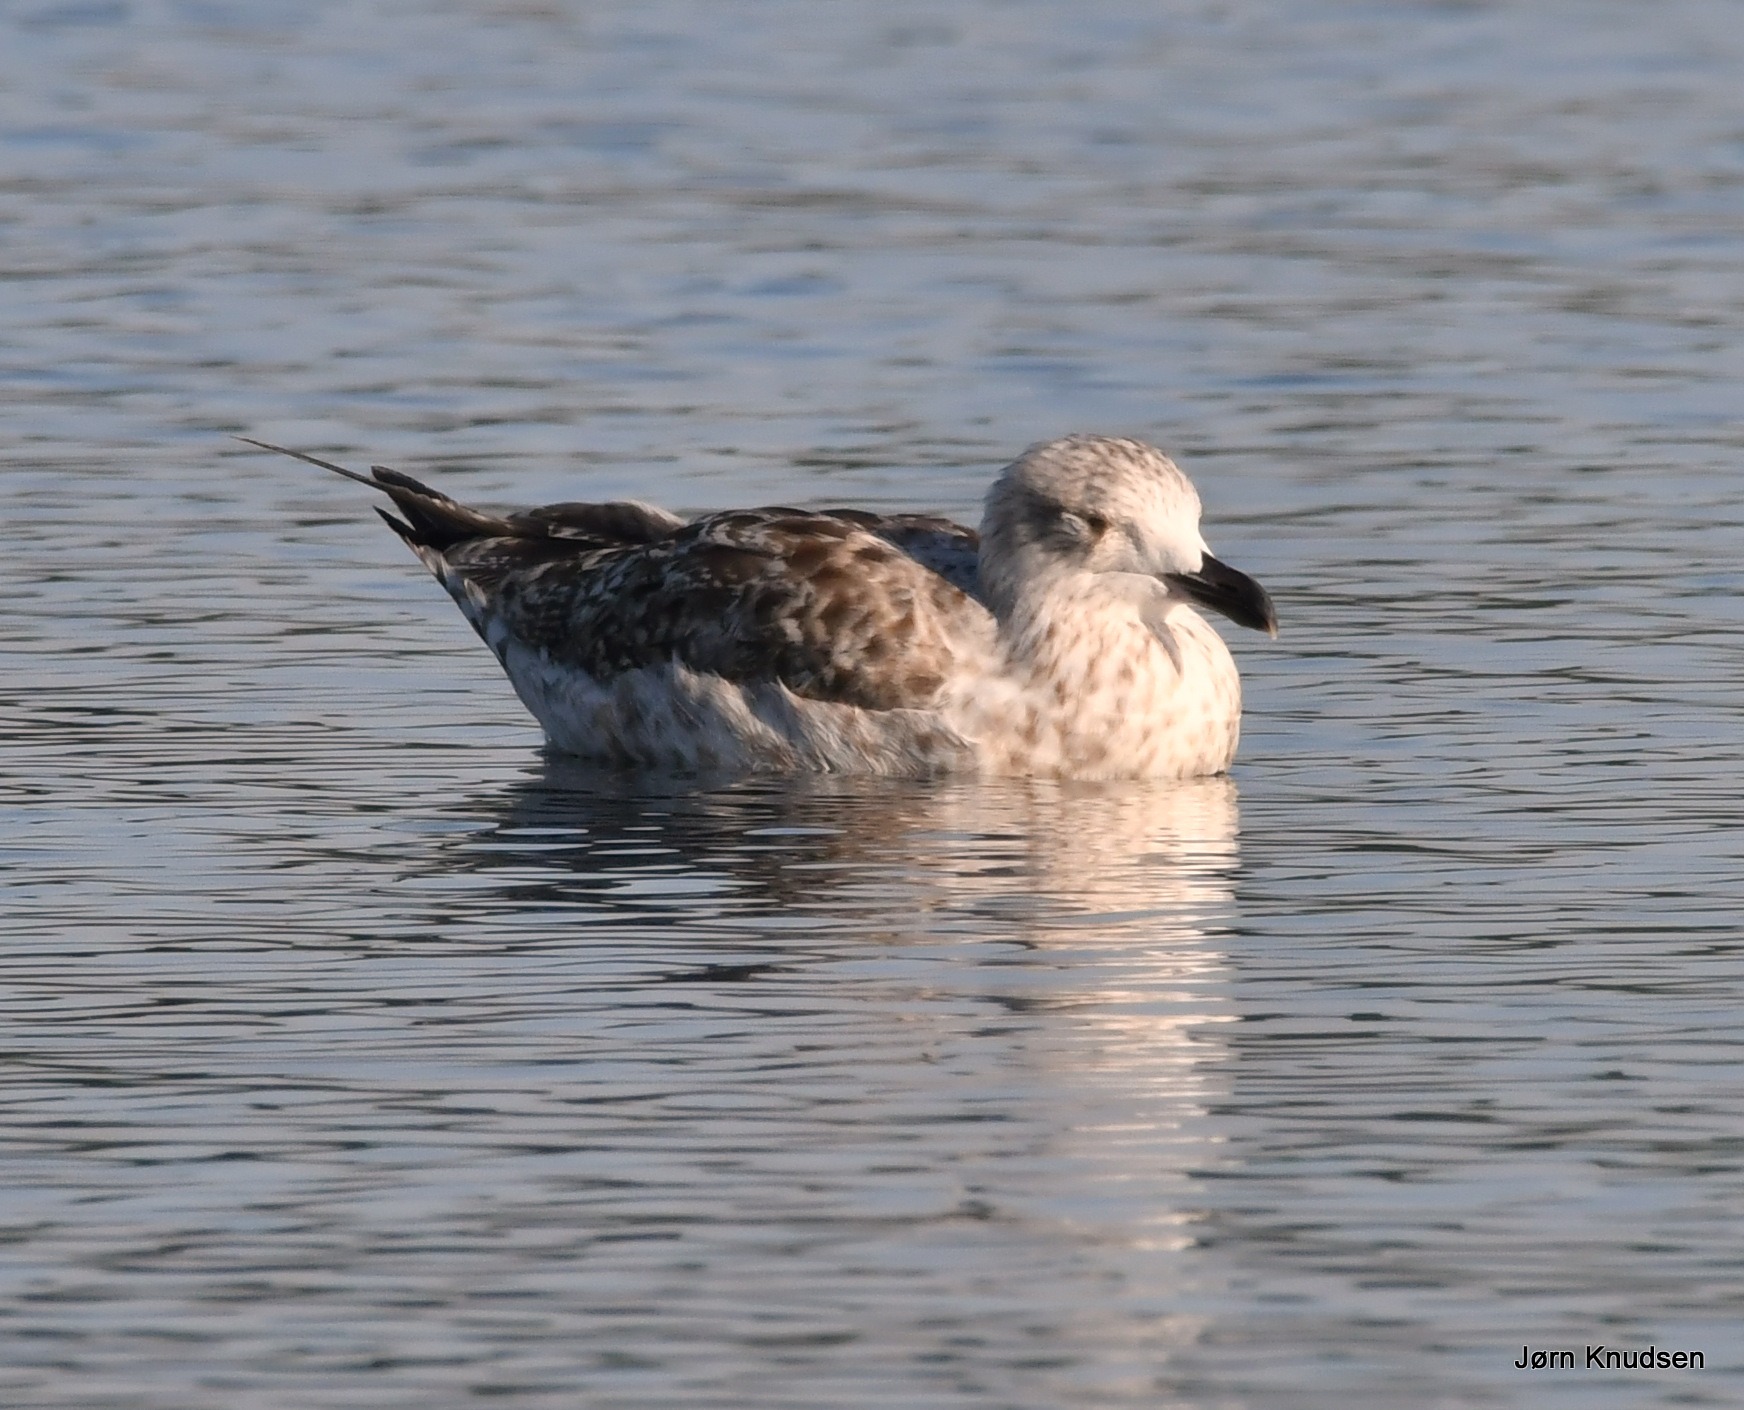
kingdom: Animalia
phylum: Chordata
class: Aves
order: Charadriiformes
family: Laridae
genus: Larus
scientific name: Larus argentatus
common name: Sølvmåge
